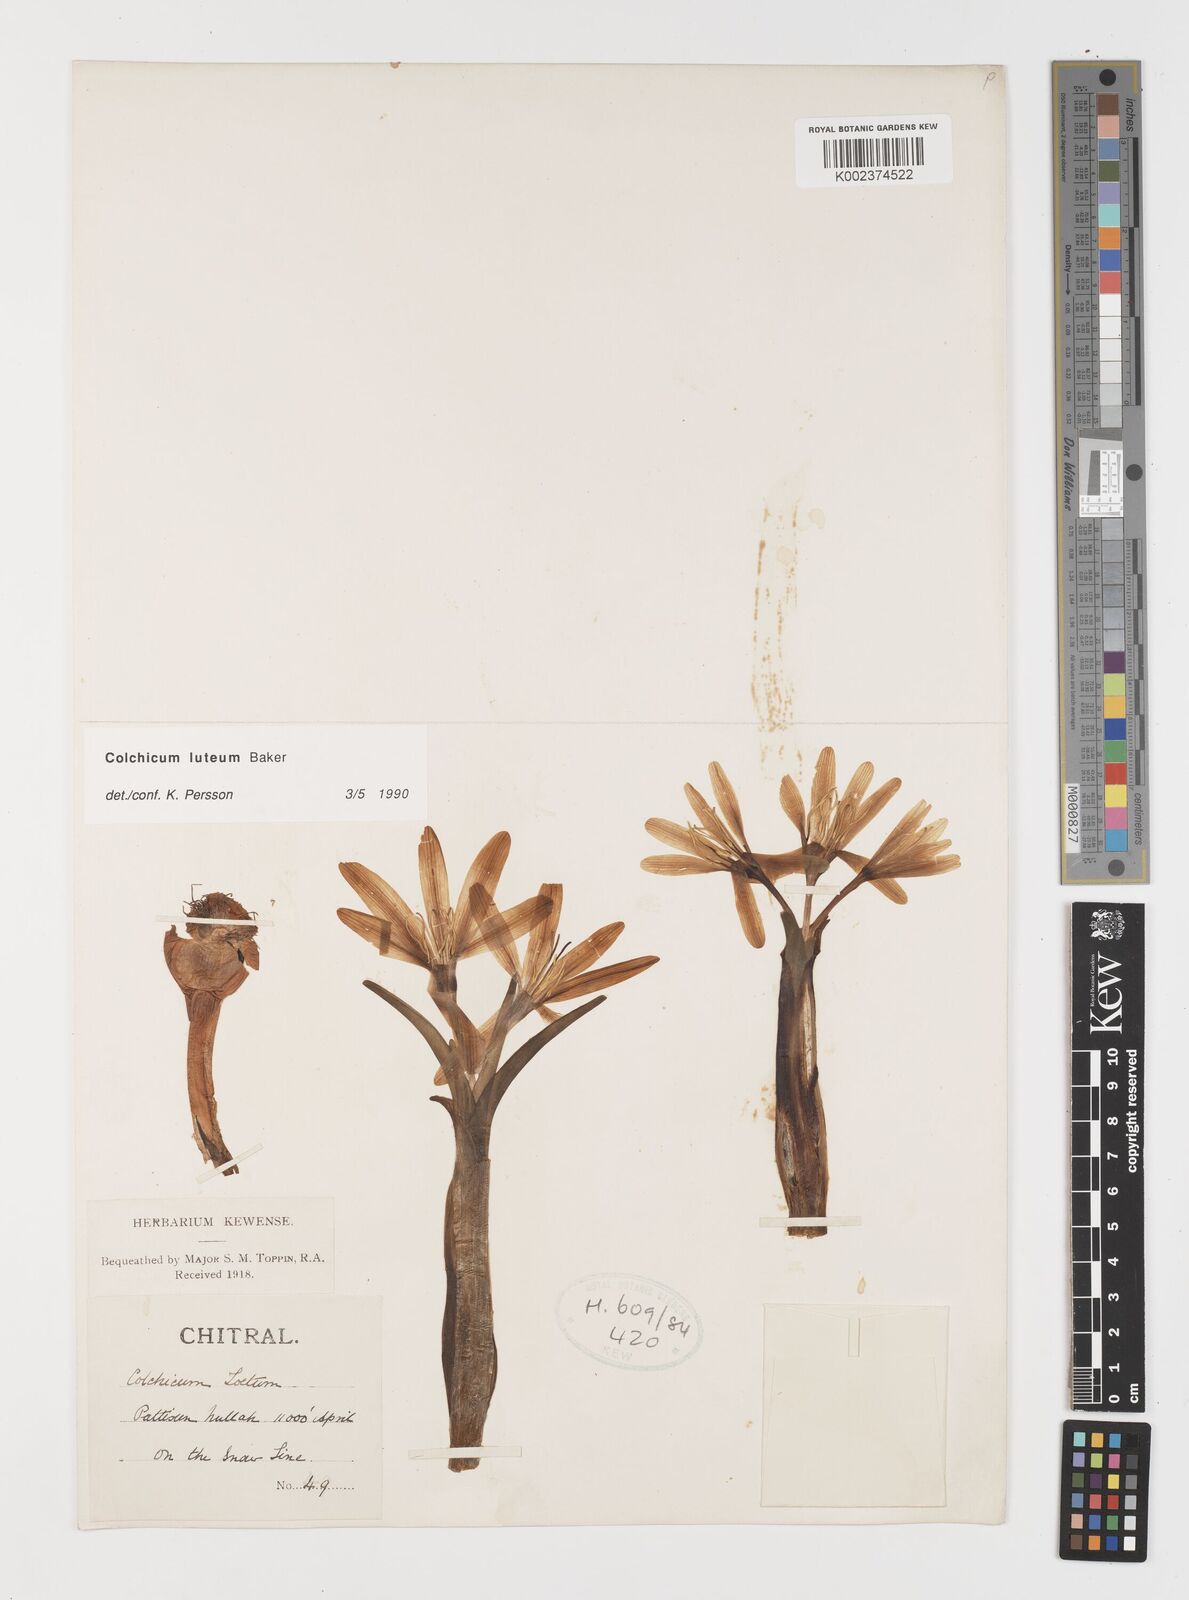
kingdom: Plantae
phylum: Tracheophyta
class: Liliopsida
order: Liliales
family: Colchicaceae
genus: Colchicum
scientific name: Colchicum luteum
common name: Indian colchicum
